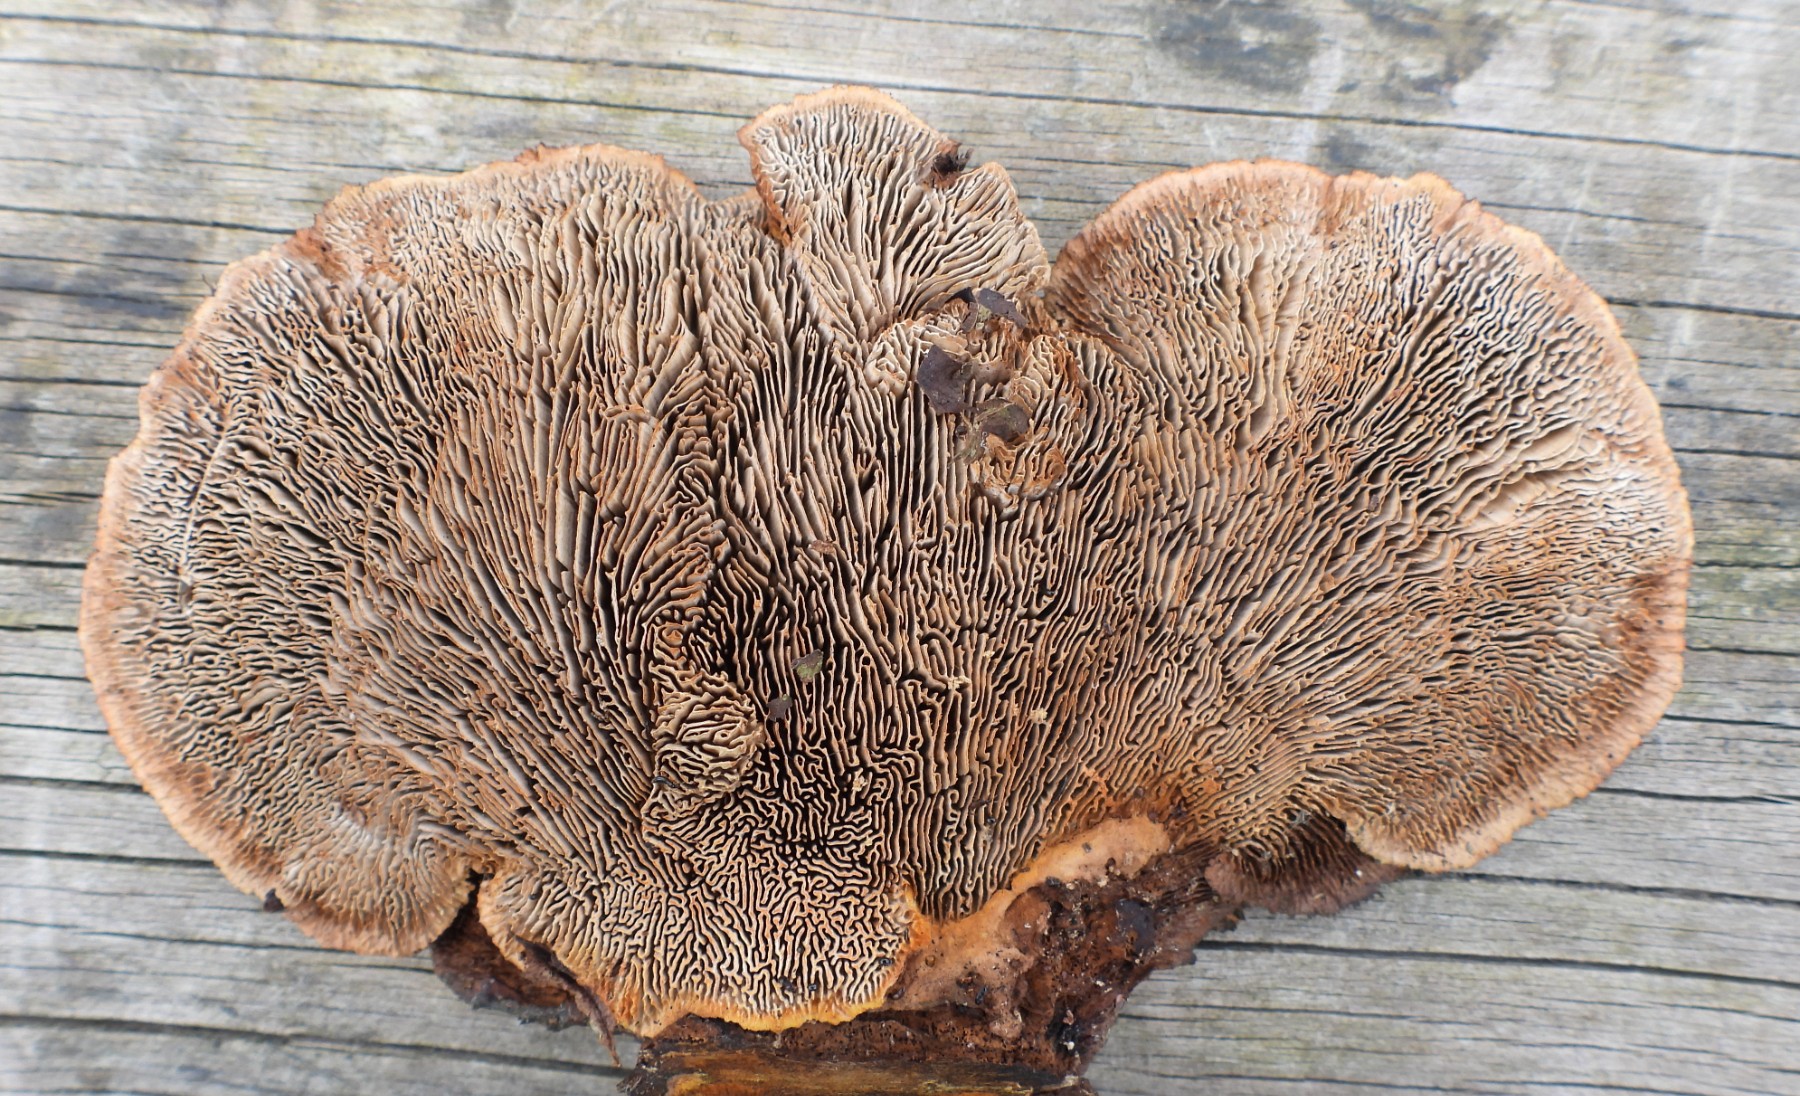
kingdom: Fungi
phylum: Basidiomycota
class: Agaricomycetes
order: Gloeophyllales
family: Gloeophyllaceae
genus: Gloeophyllum
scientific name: Gloeophyllum sepiarium
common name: fyrre-korkhat
